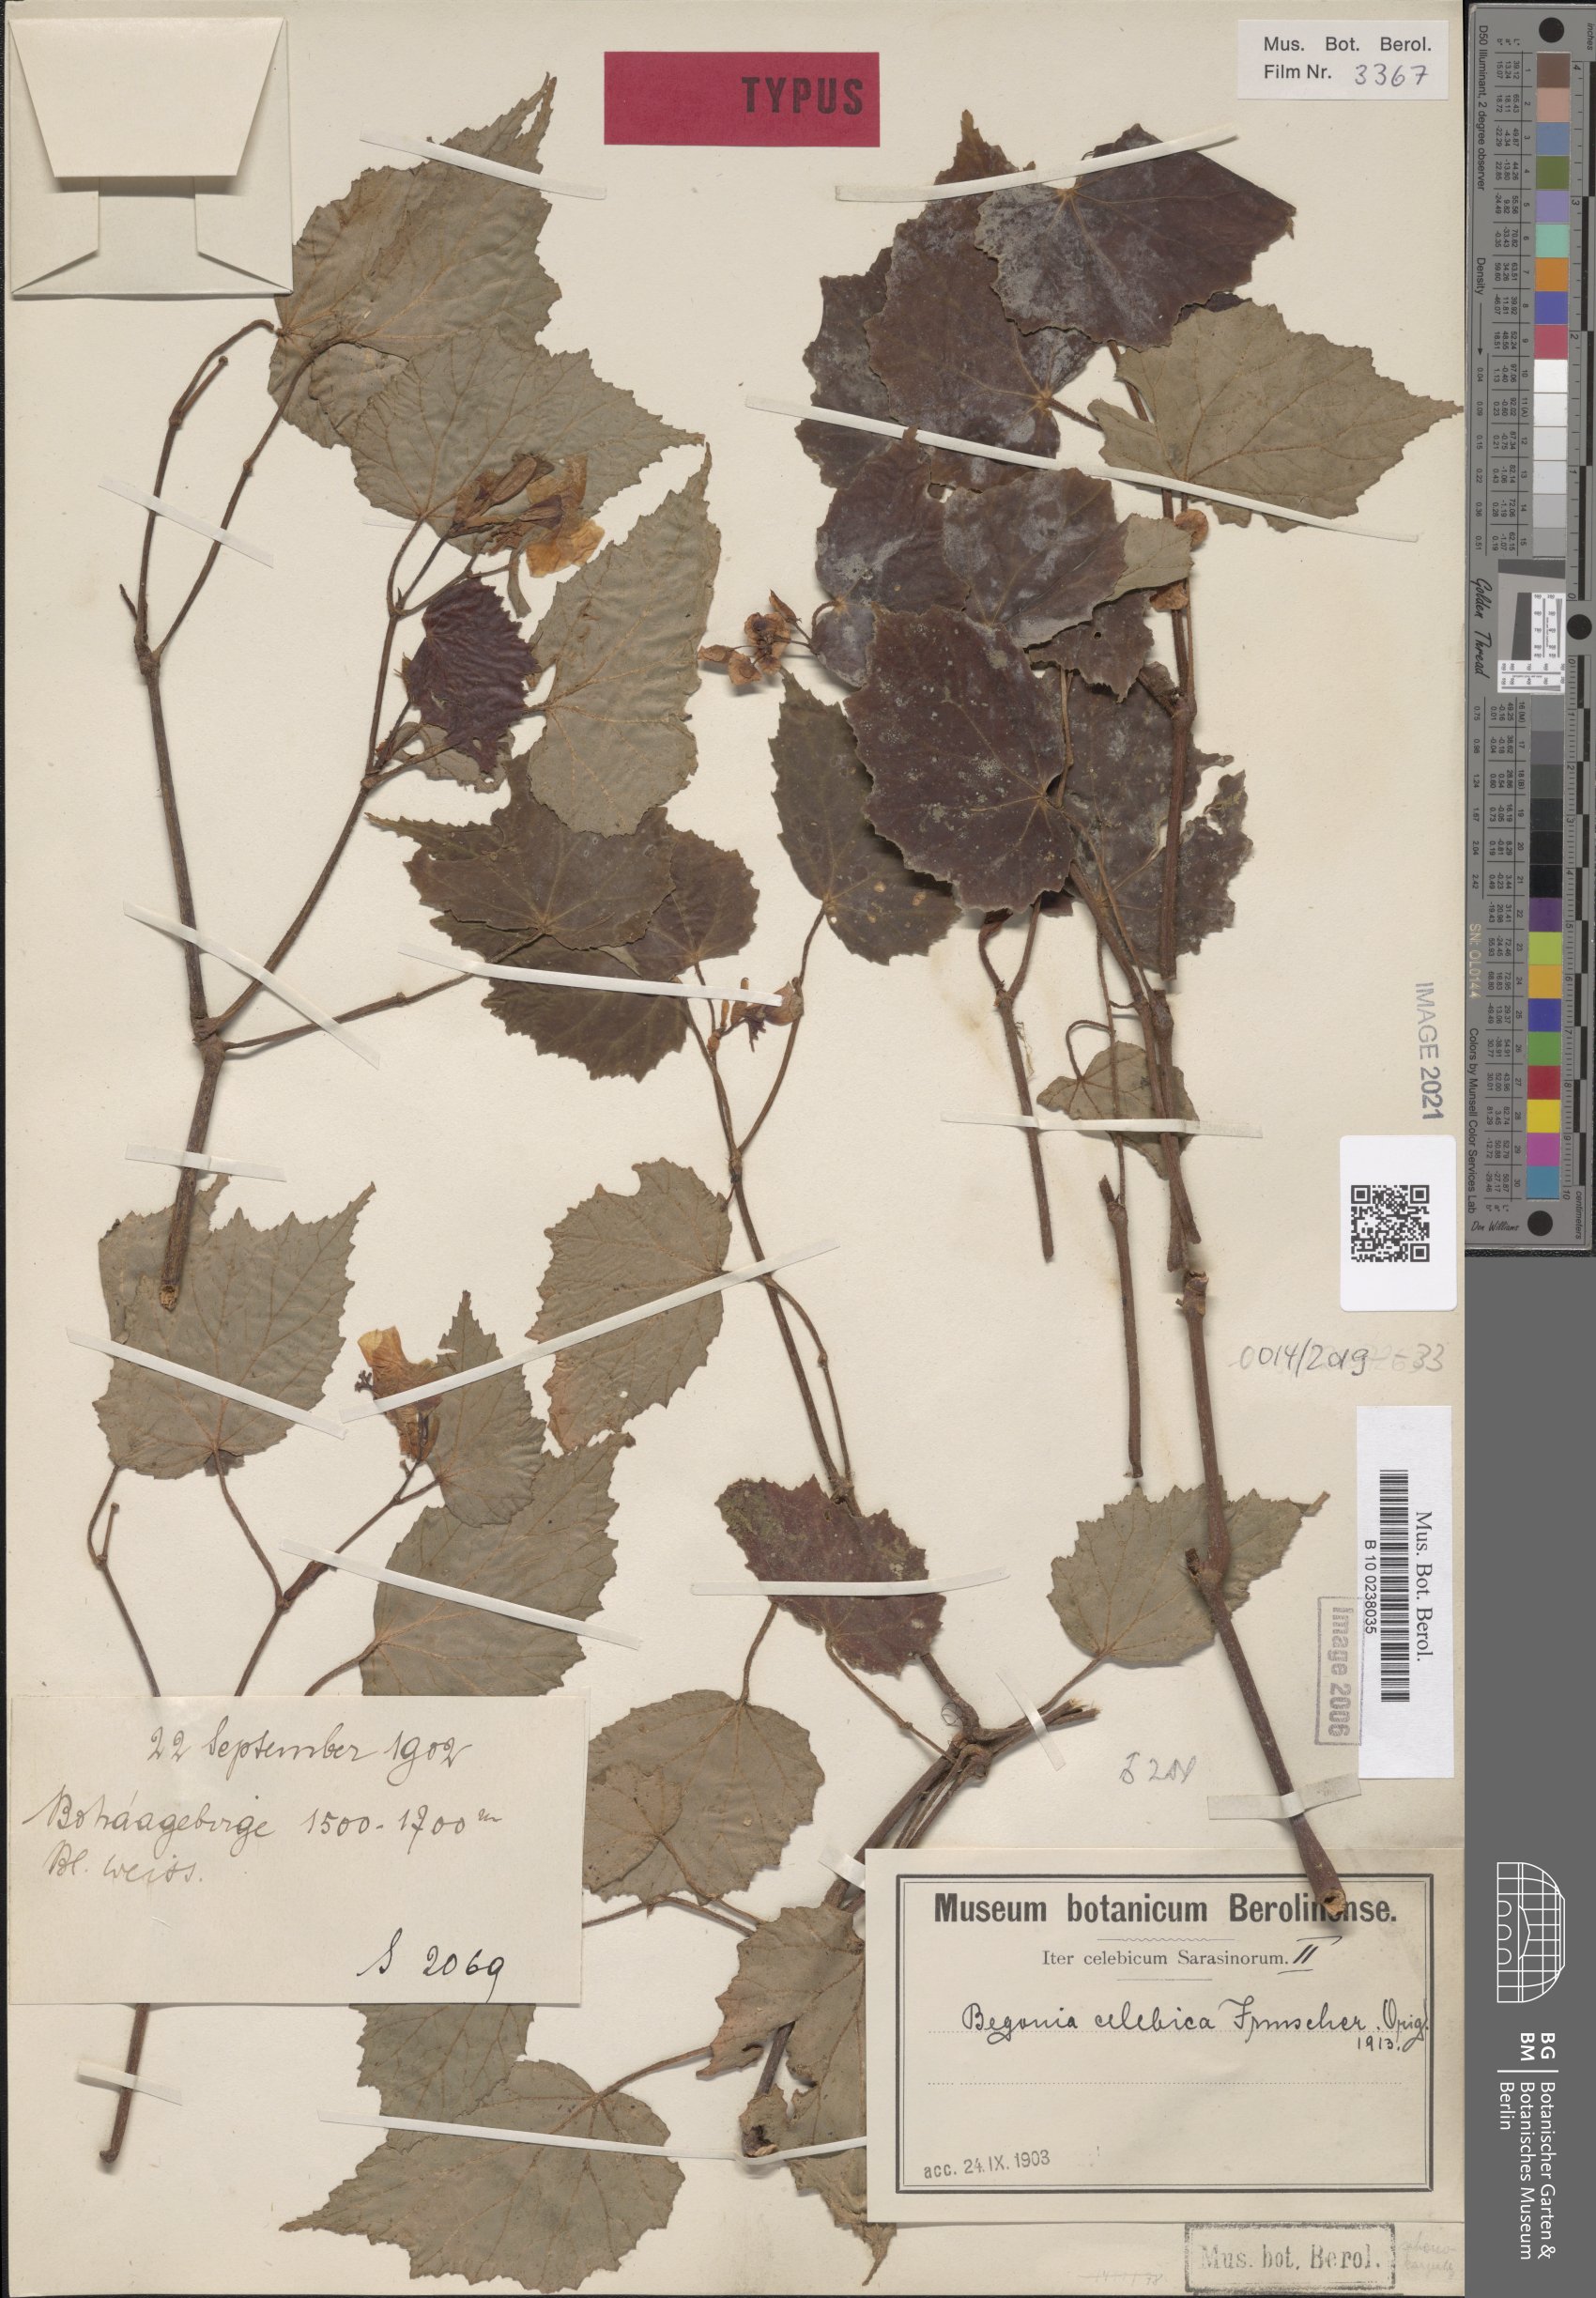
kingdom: Plantae
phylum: Tracheophyta
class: Magnoliopsida
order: Cucurbitales
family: Begoniaceae
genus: Begonia
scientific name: Begonia celebica
